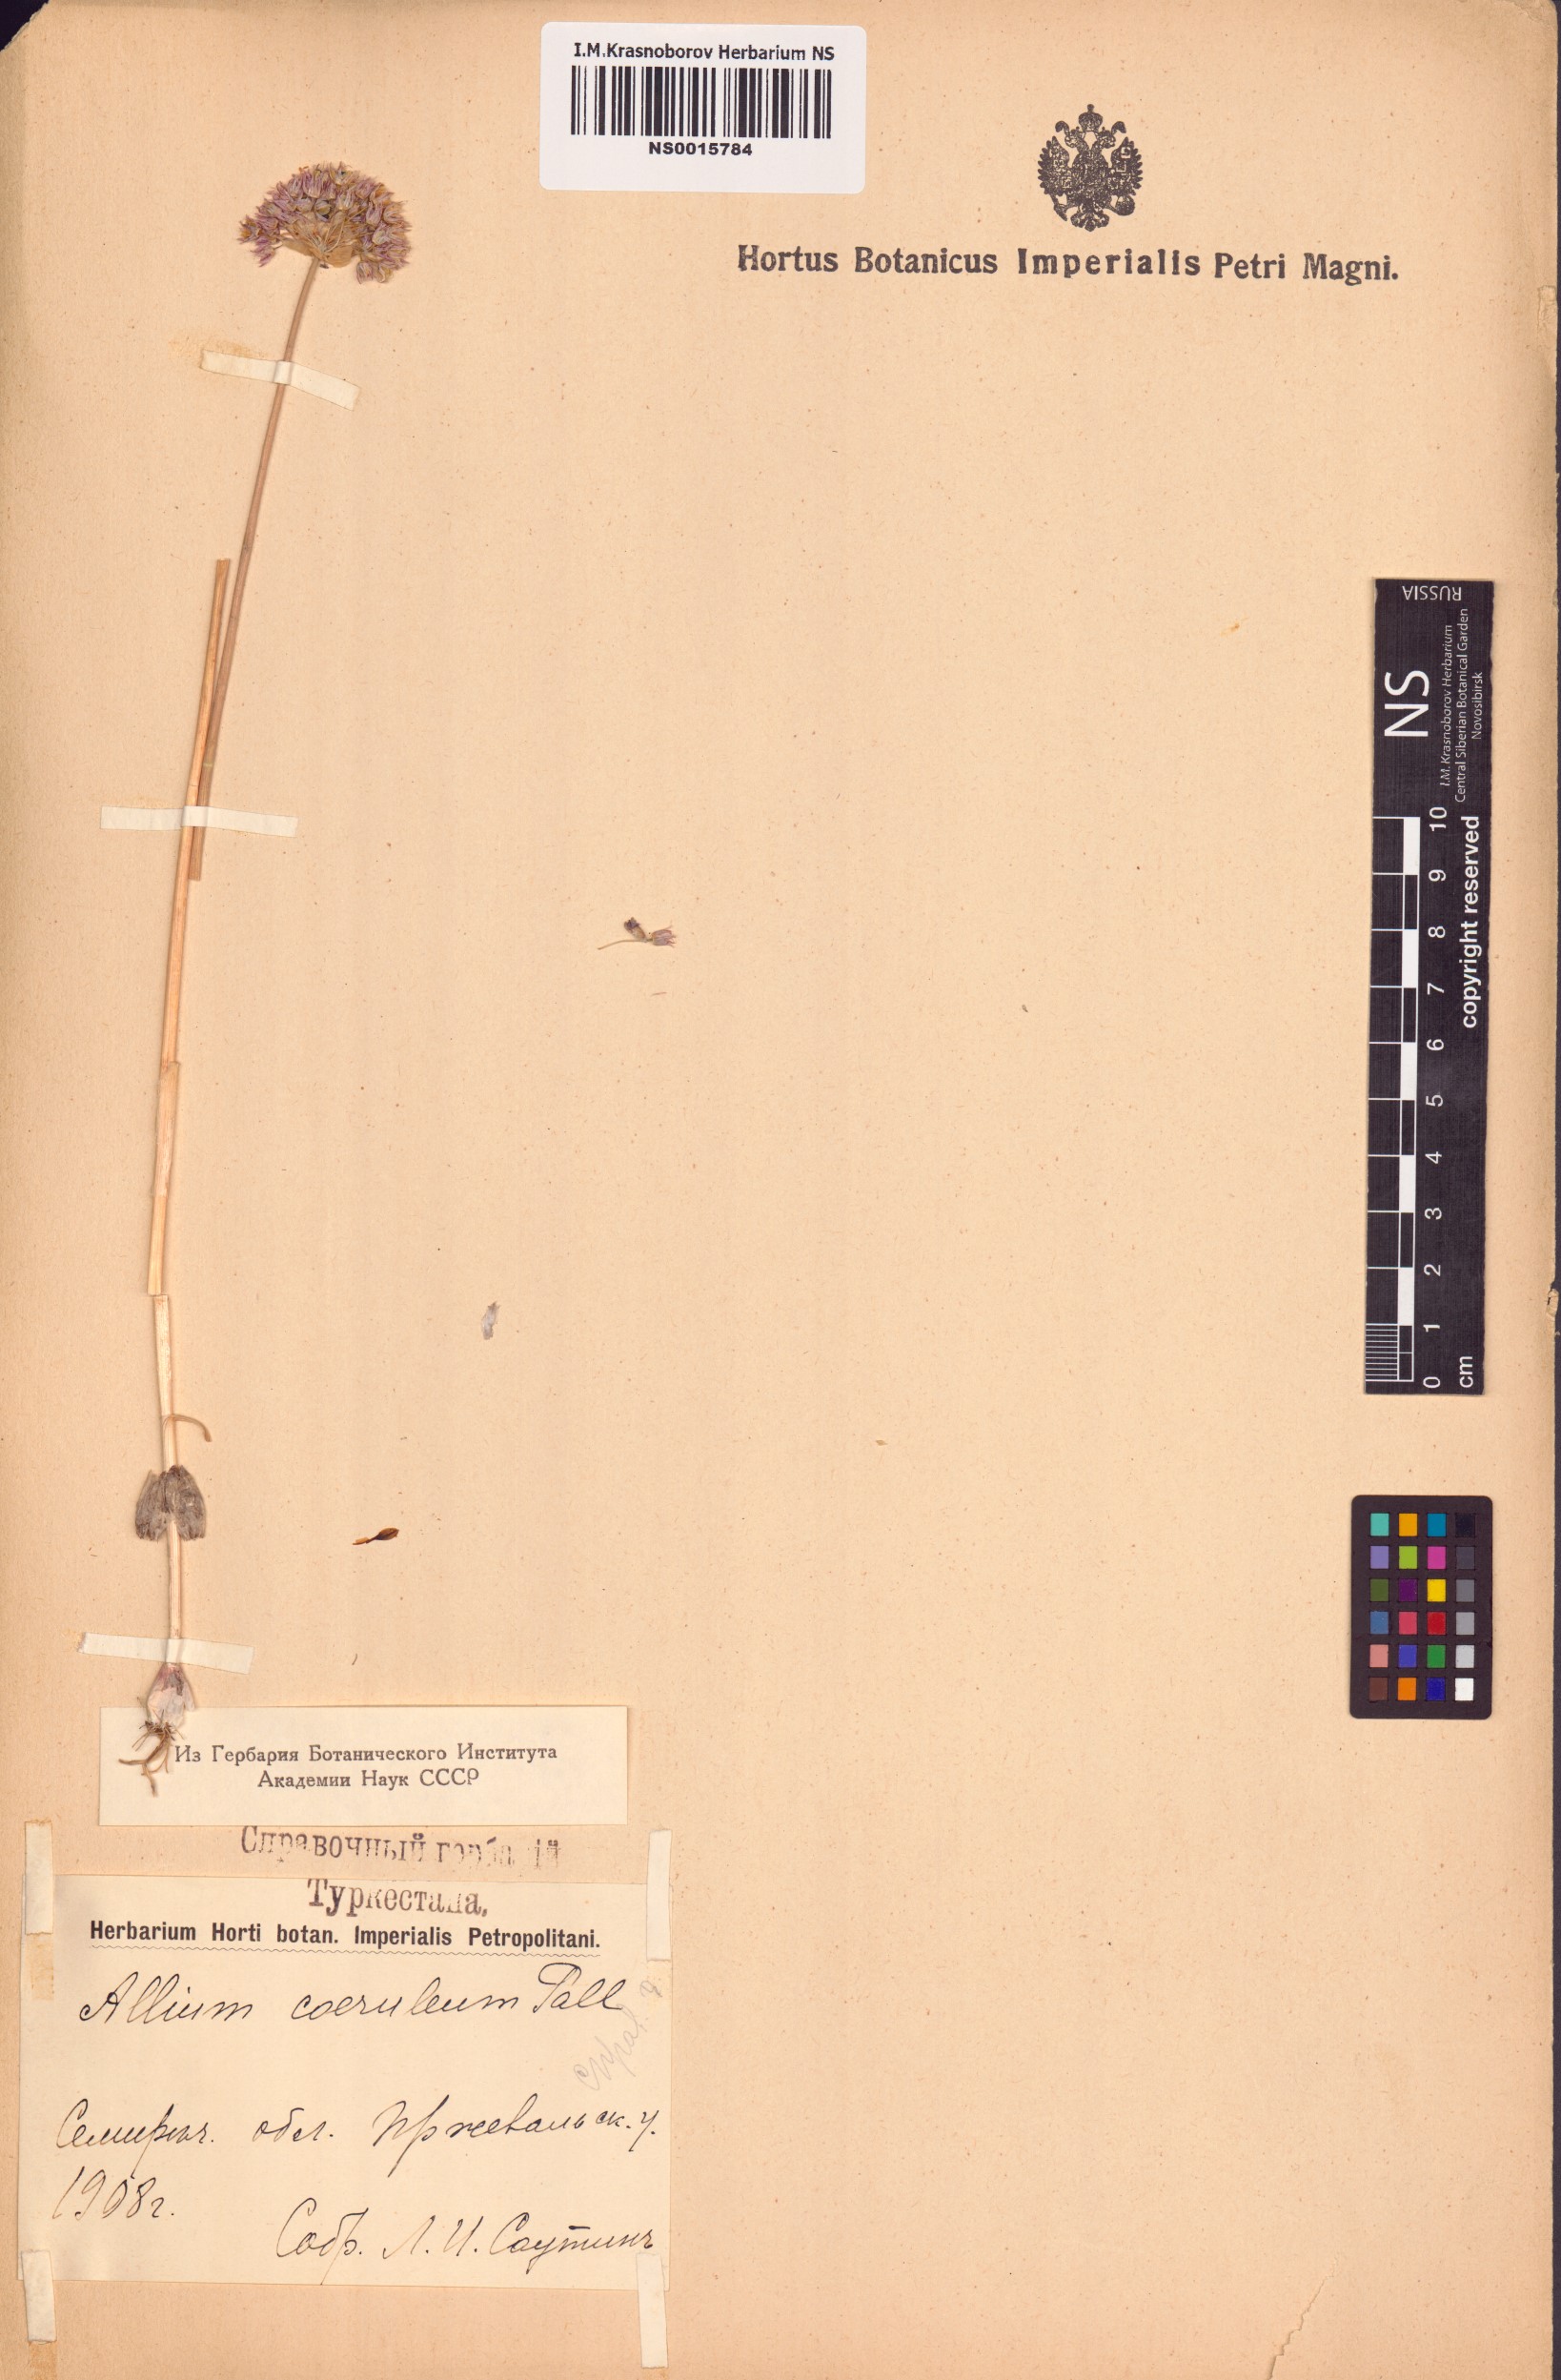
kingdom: Plantae
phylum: Tracheophyta
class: Liliopsida
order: Asparagales
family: Amaryllidaceae
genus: Allium
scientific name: Allium caeruleum
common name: Blue-of-the-heavens
